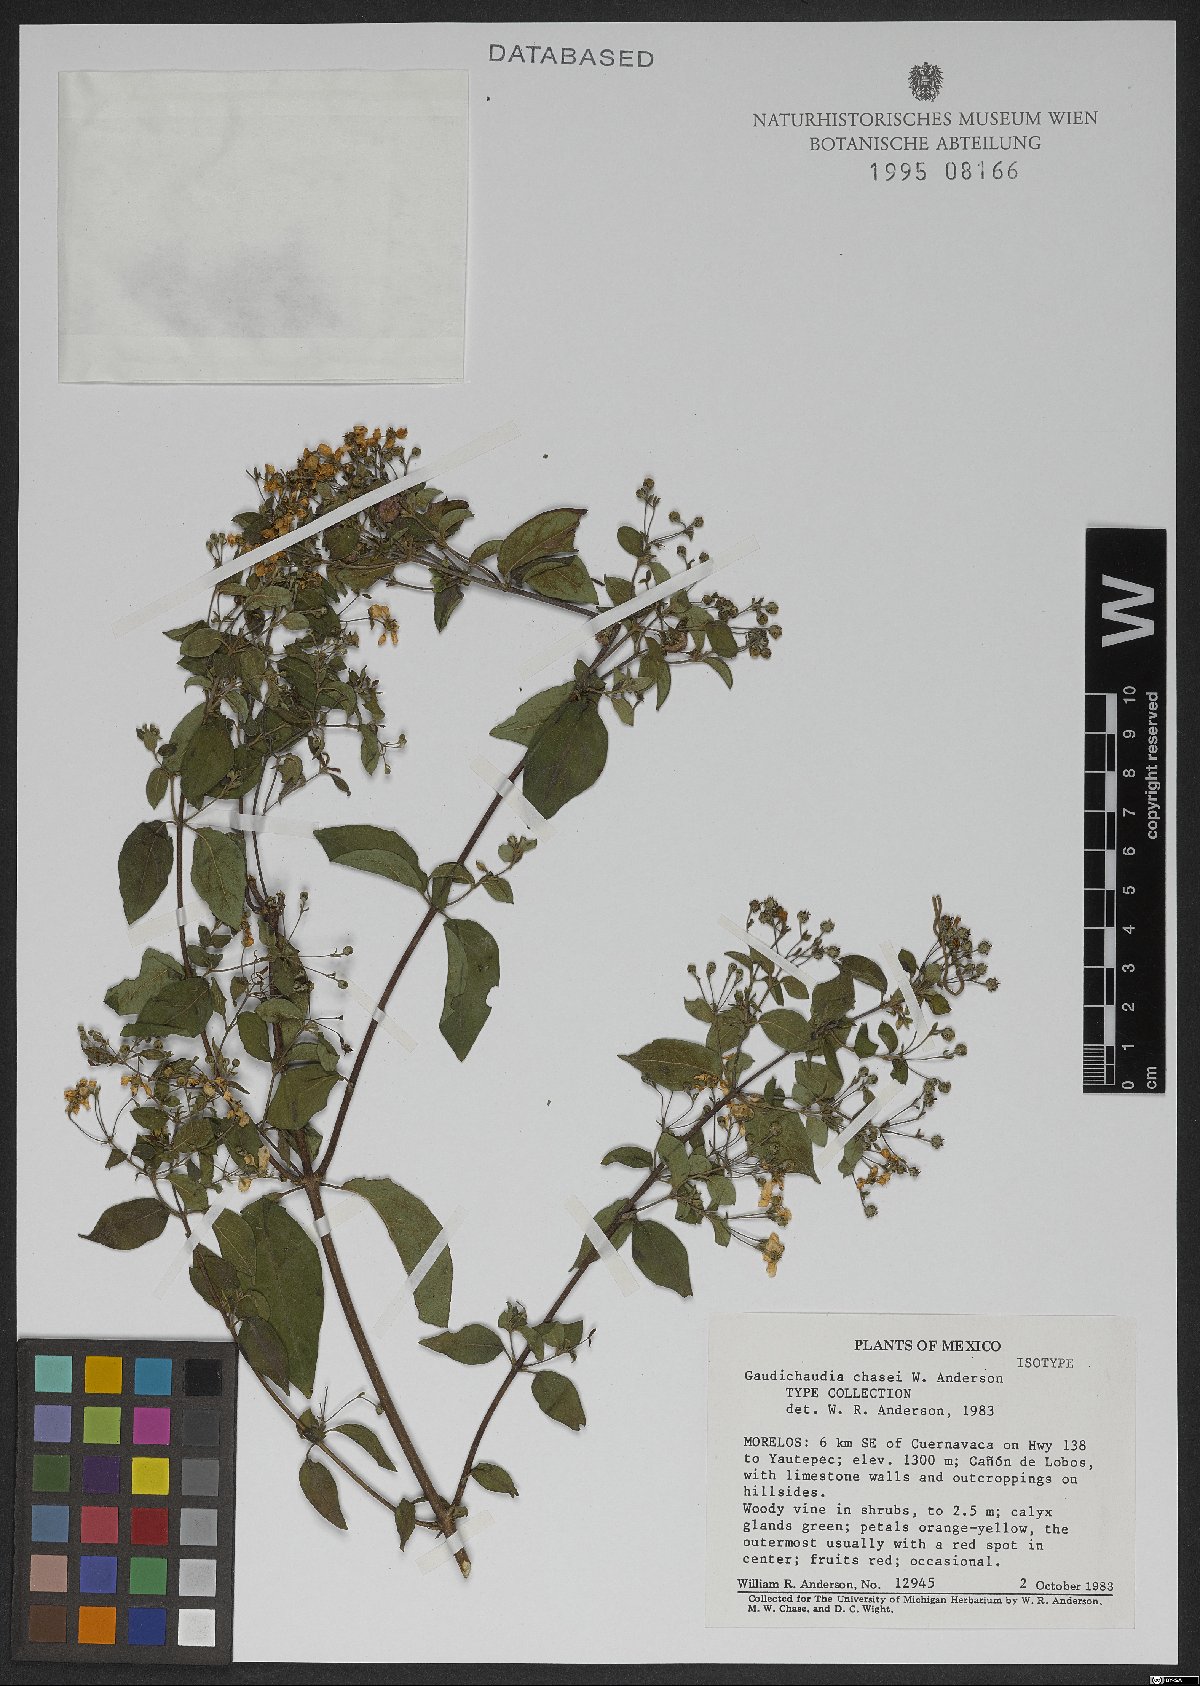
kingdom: Plantae
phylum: Tracheophyta
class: Magnoliopsida
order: Malpighiales
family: Malpighiaceae
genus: Gaudichaudia
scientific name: Gaudichaudia chasei
